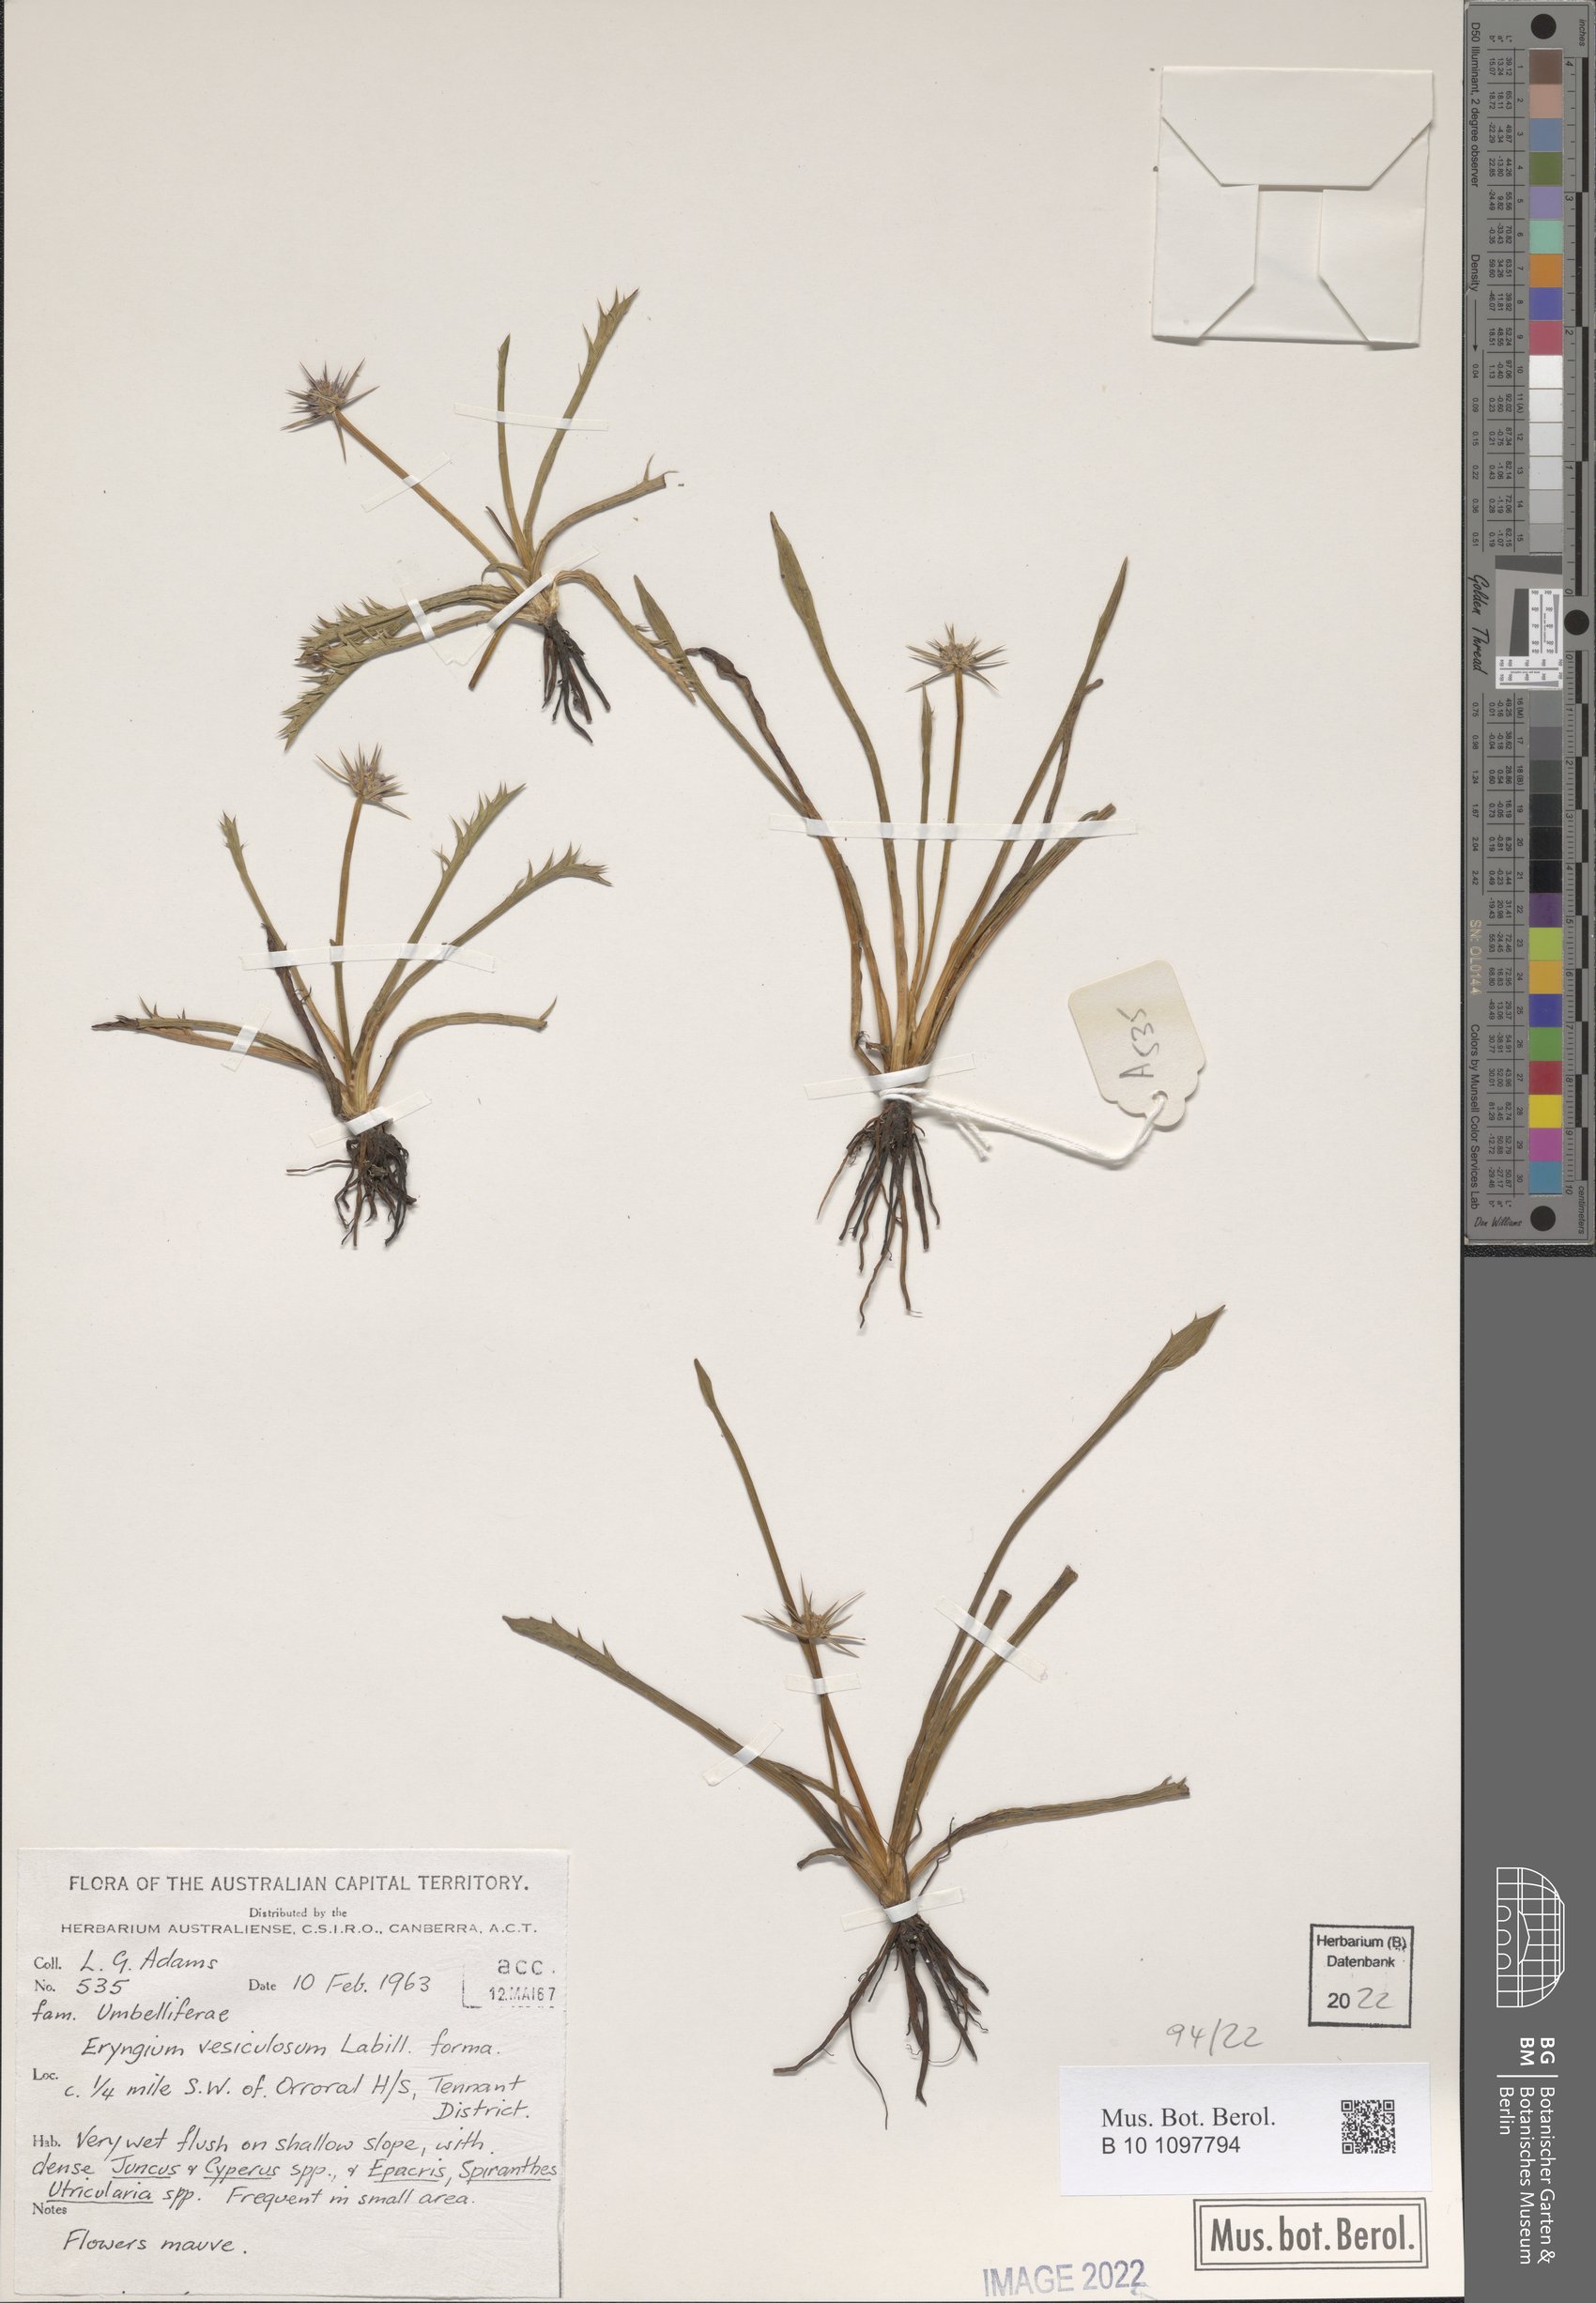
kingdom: Plantae
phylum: Tracheophyta
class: Magnoliopsida
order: Apiales
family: Apiaceae
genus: Eryngium
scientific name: Eryngium vesiculosum
